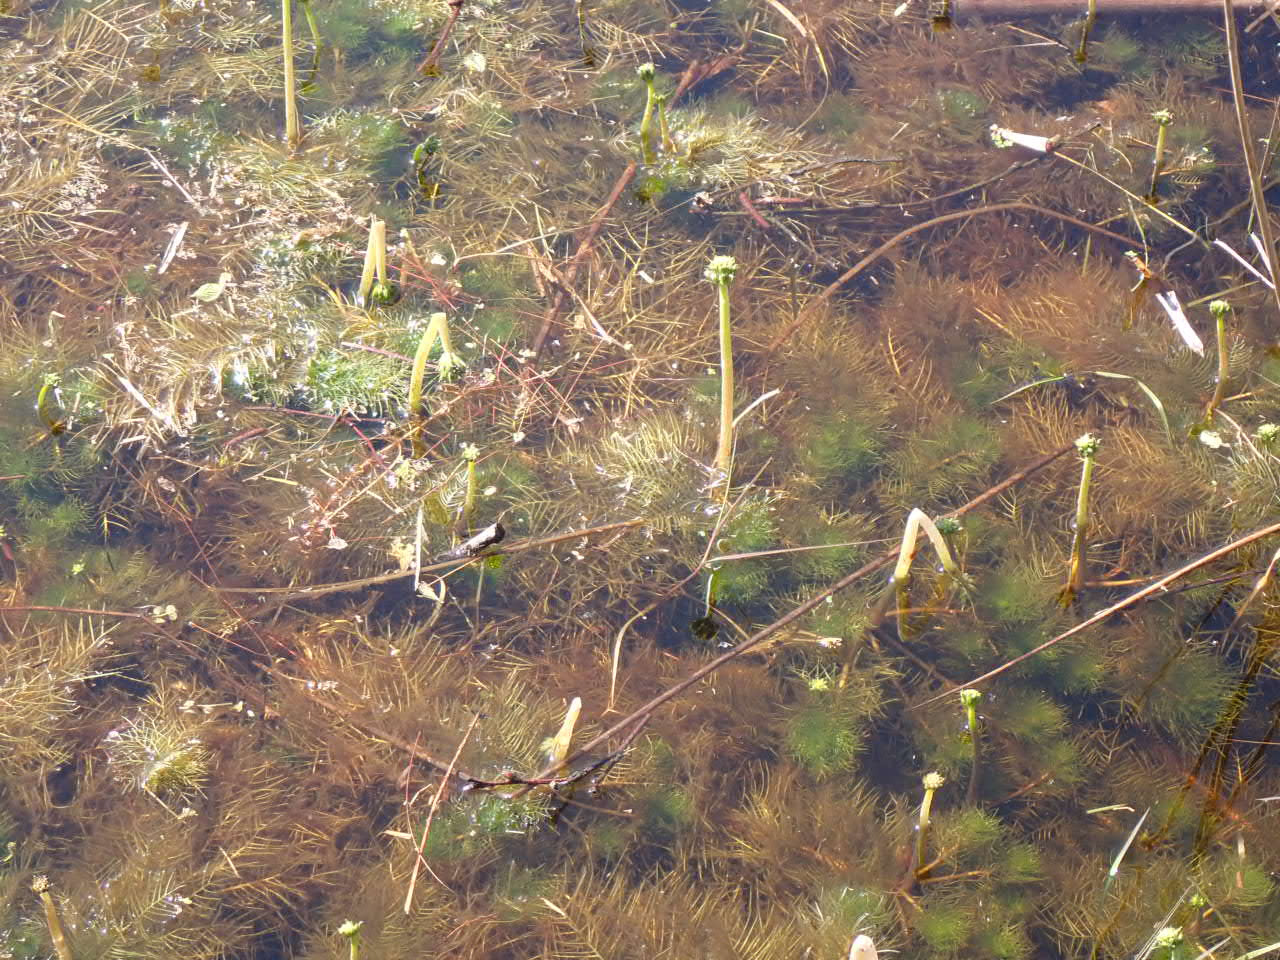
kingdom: Plantae
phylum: Tracheophyta
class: Magnoliopsida
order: Ericales
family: Primulaceae
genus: Hottonia
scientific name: Hottonia palustris
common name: Vandrøllike
